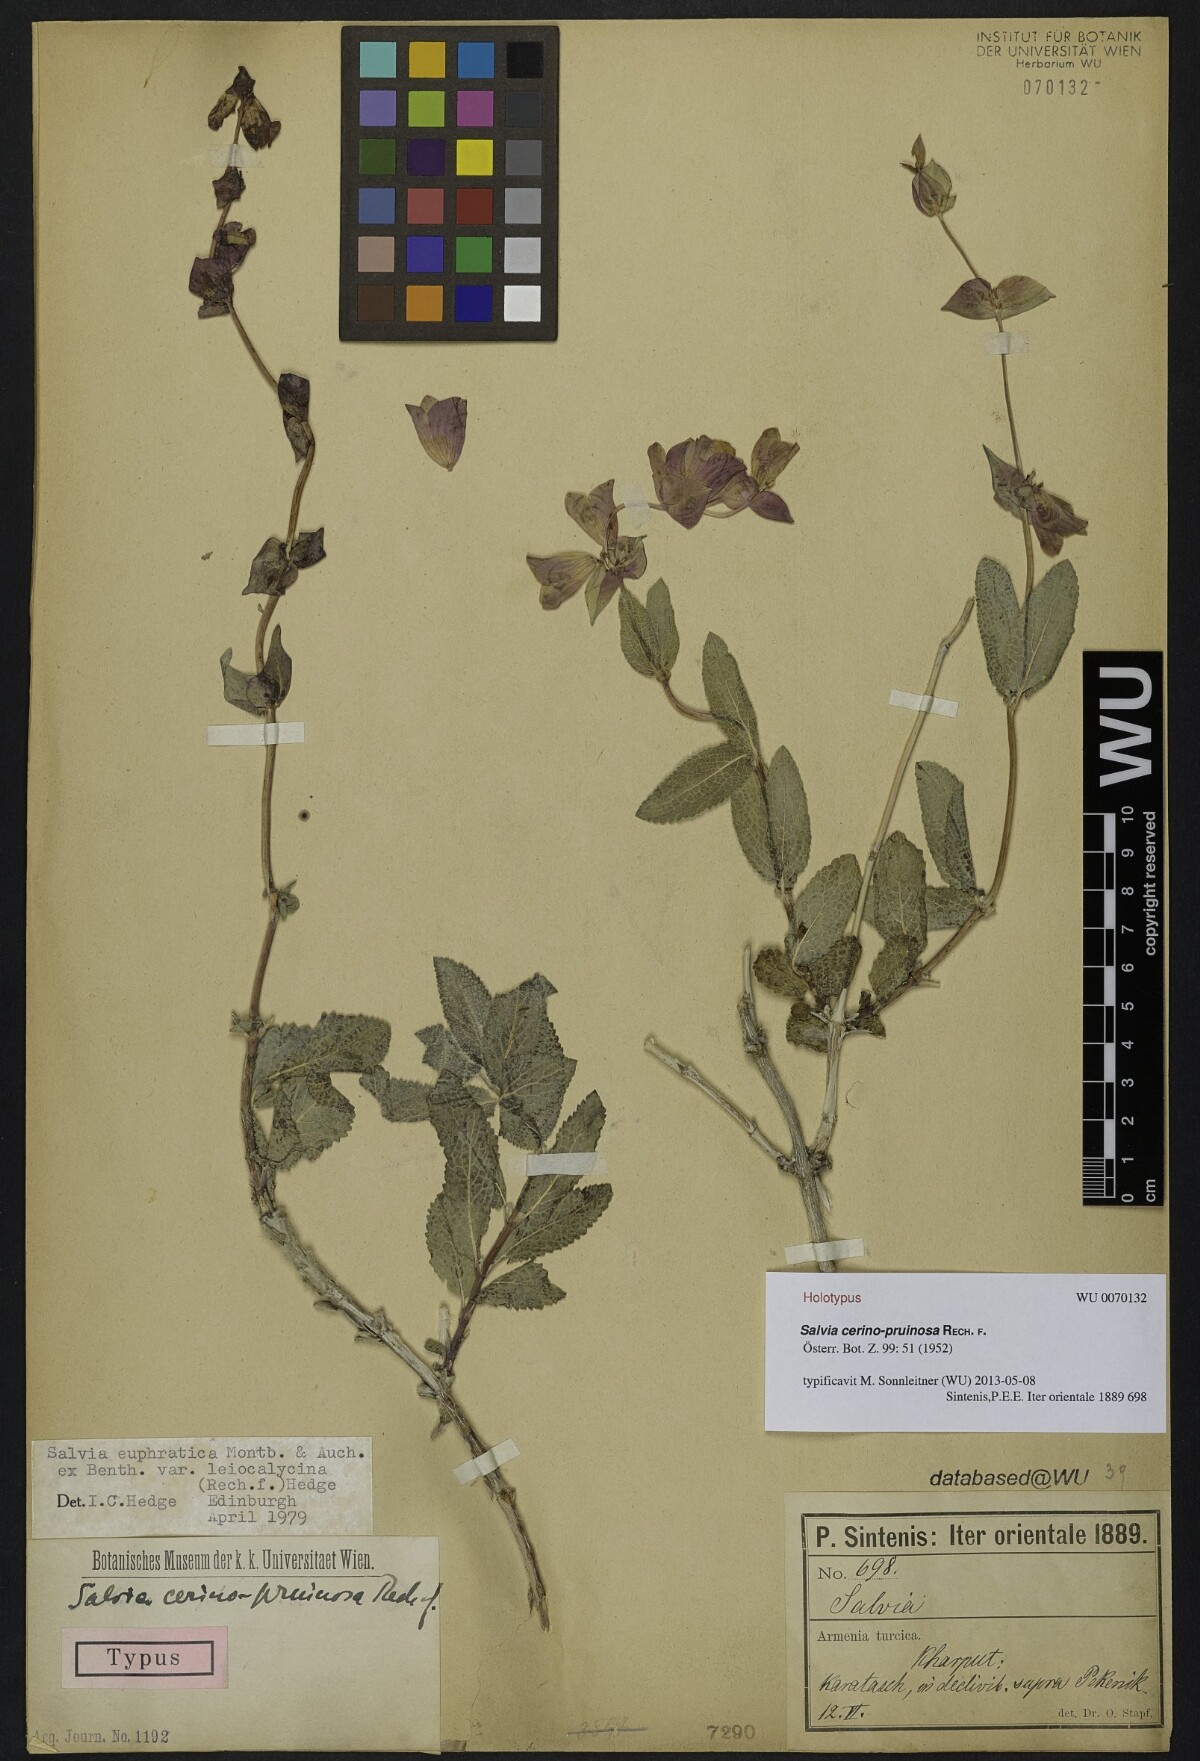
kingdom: Plantae
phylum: Tracheophyta
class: Magnoliopsida
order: Lamiales
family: Lamiaceae
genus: Salvia
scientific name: Salvia cerinopruinosa
